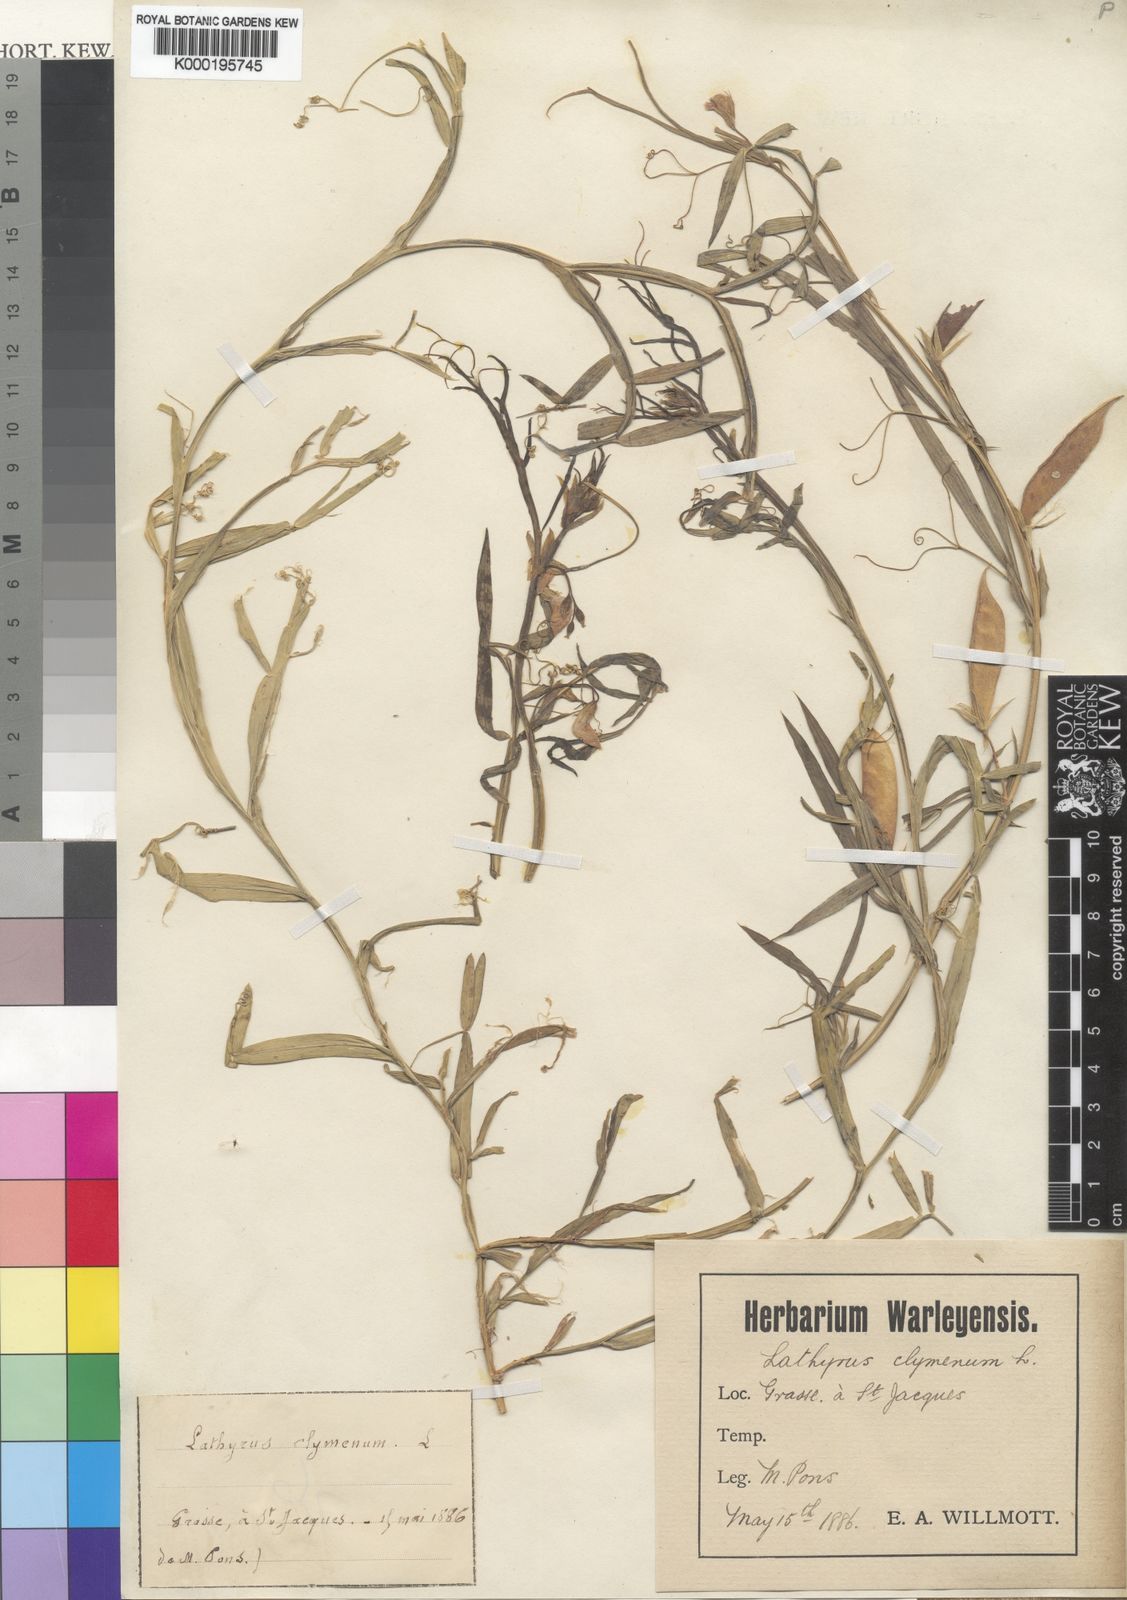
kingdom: Plantae
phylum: Tracheophyta
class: Magnoliopsida
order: Fabales
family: Fabaceae
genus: Lathyrus
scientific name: Lathyrus clymenum
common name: Spanish vetchling
